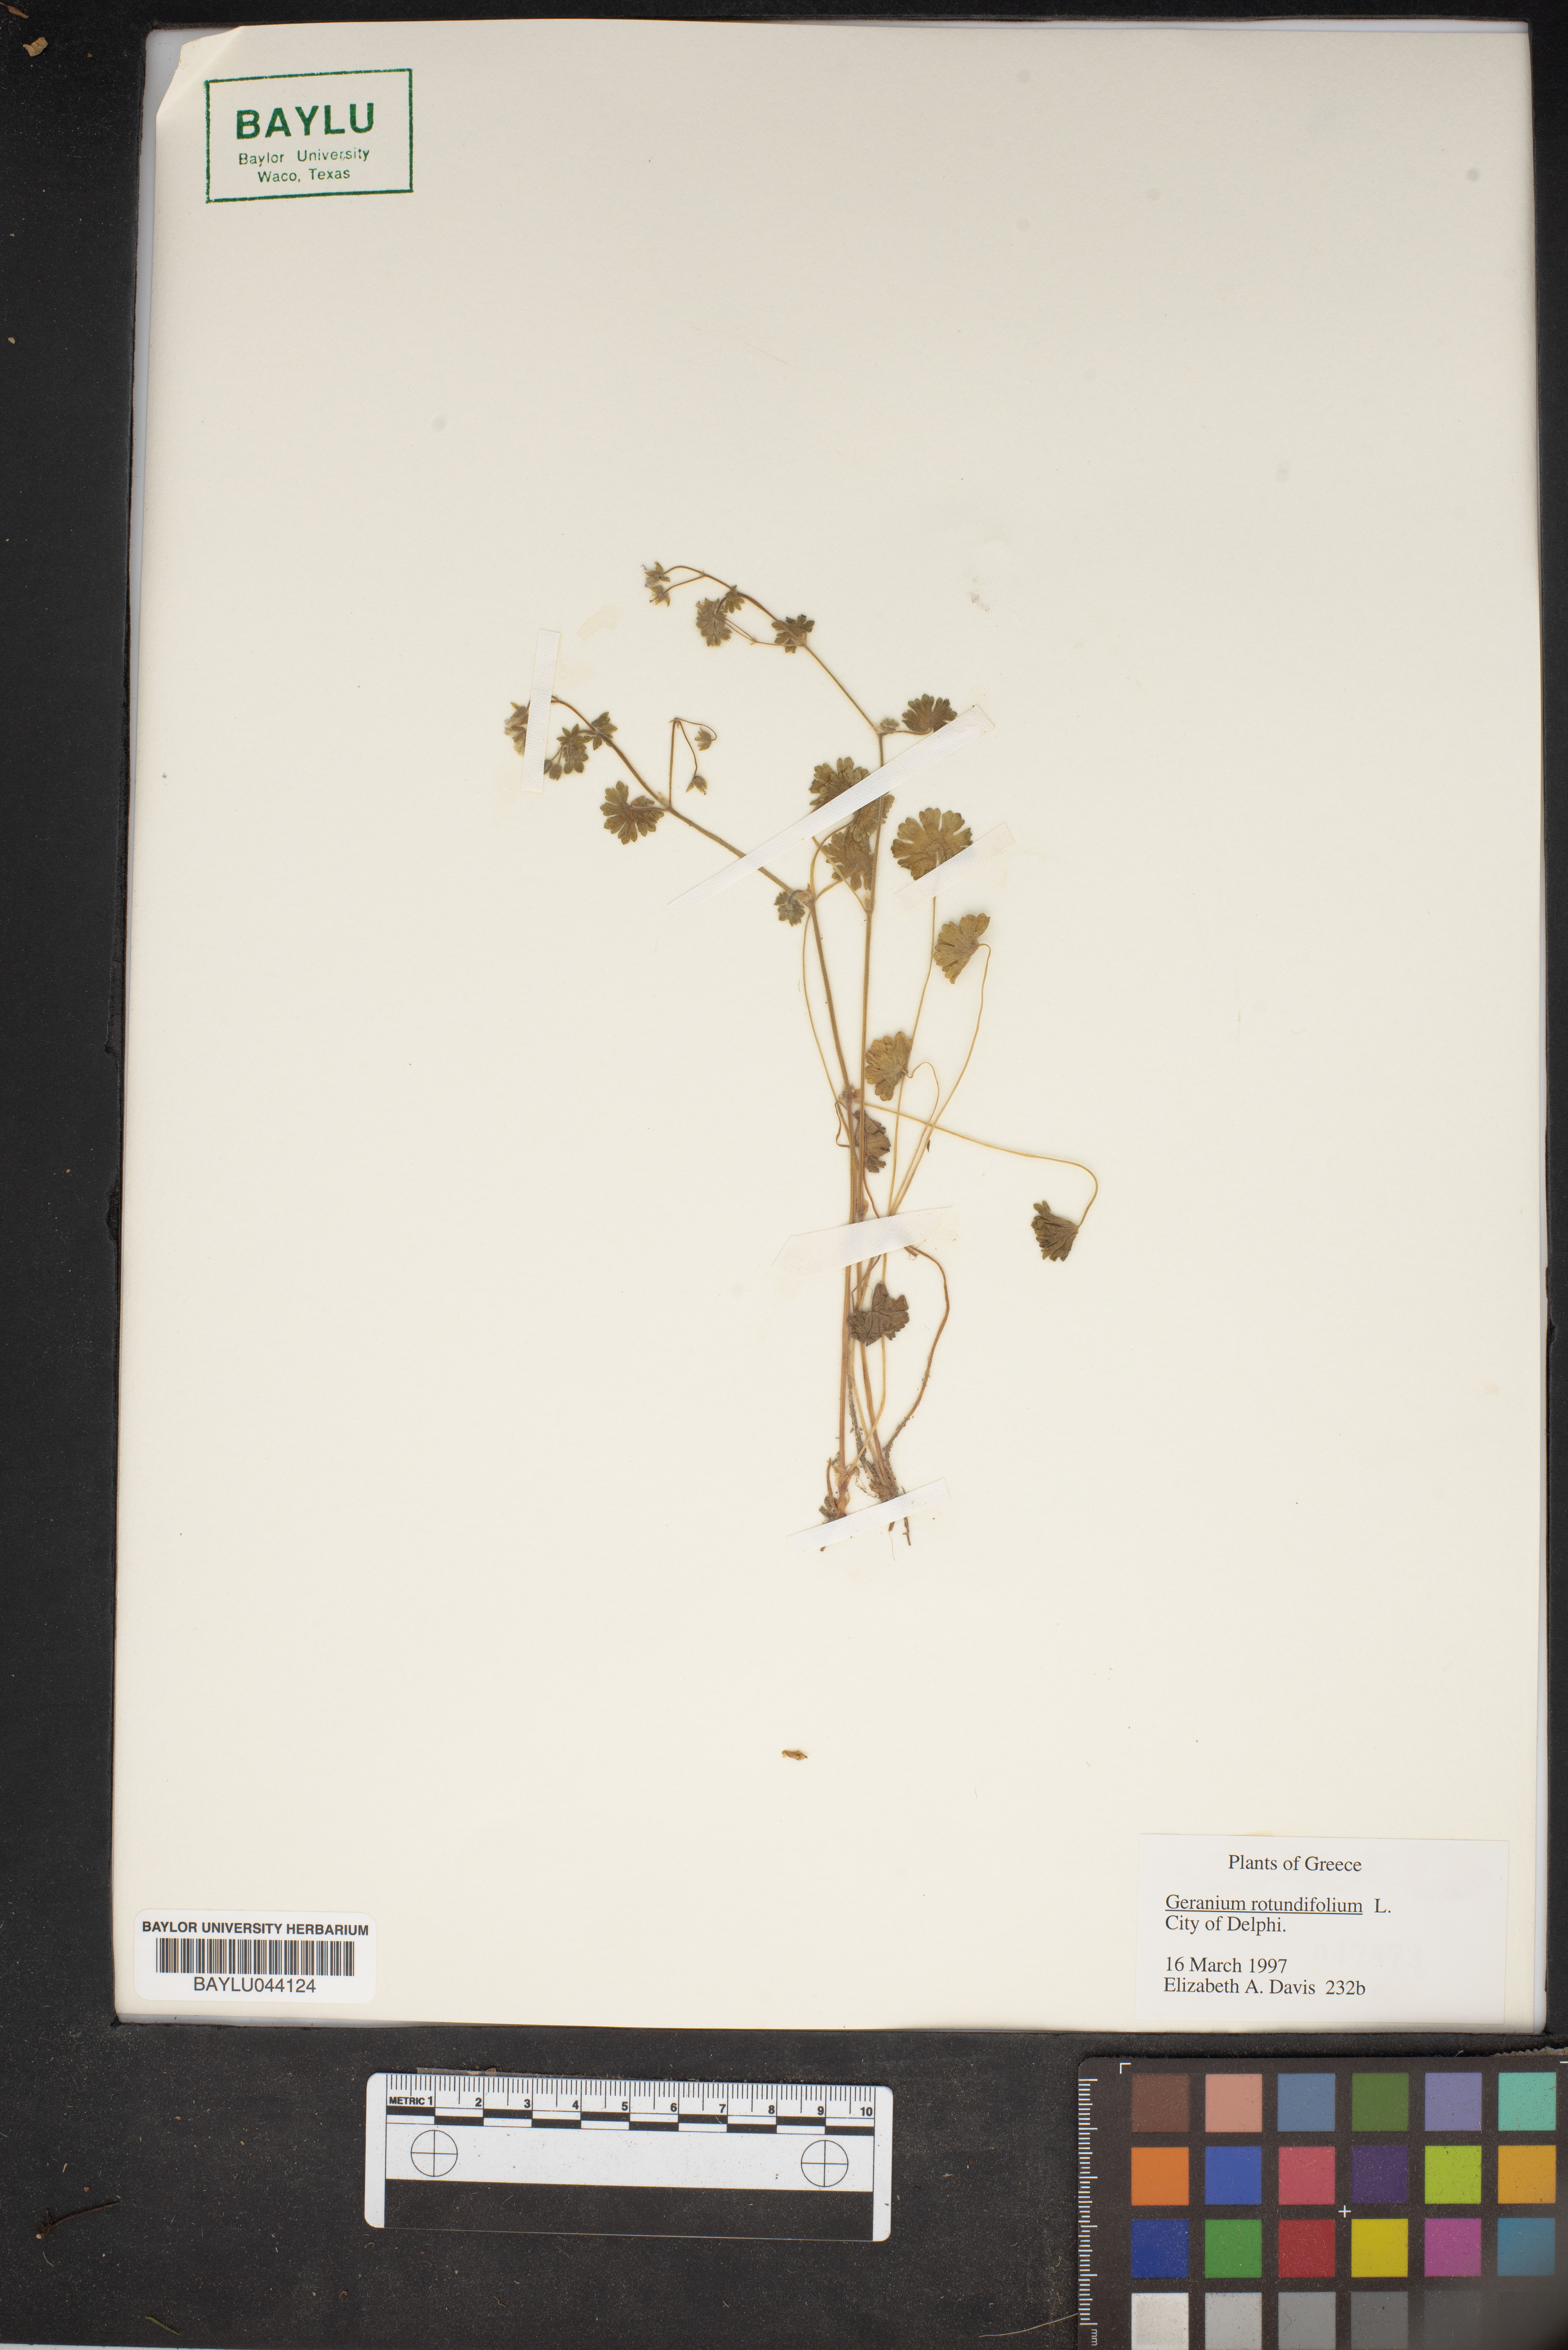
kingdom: Plantae
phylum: Tracheophyta
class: Magnoliopsida
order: Geraniales
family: Geraniaceae
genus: Geranium
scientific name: Geranium rotundifolium
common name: Round-leaved crane's-bill
